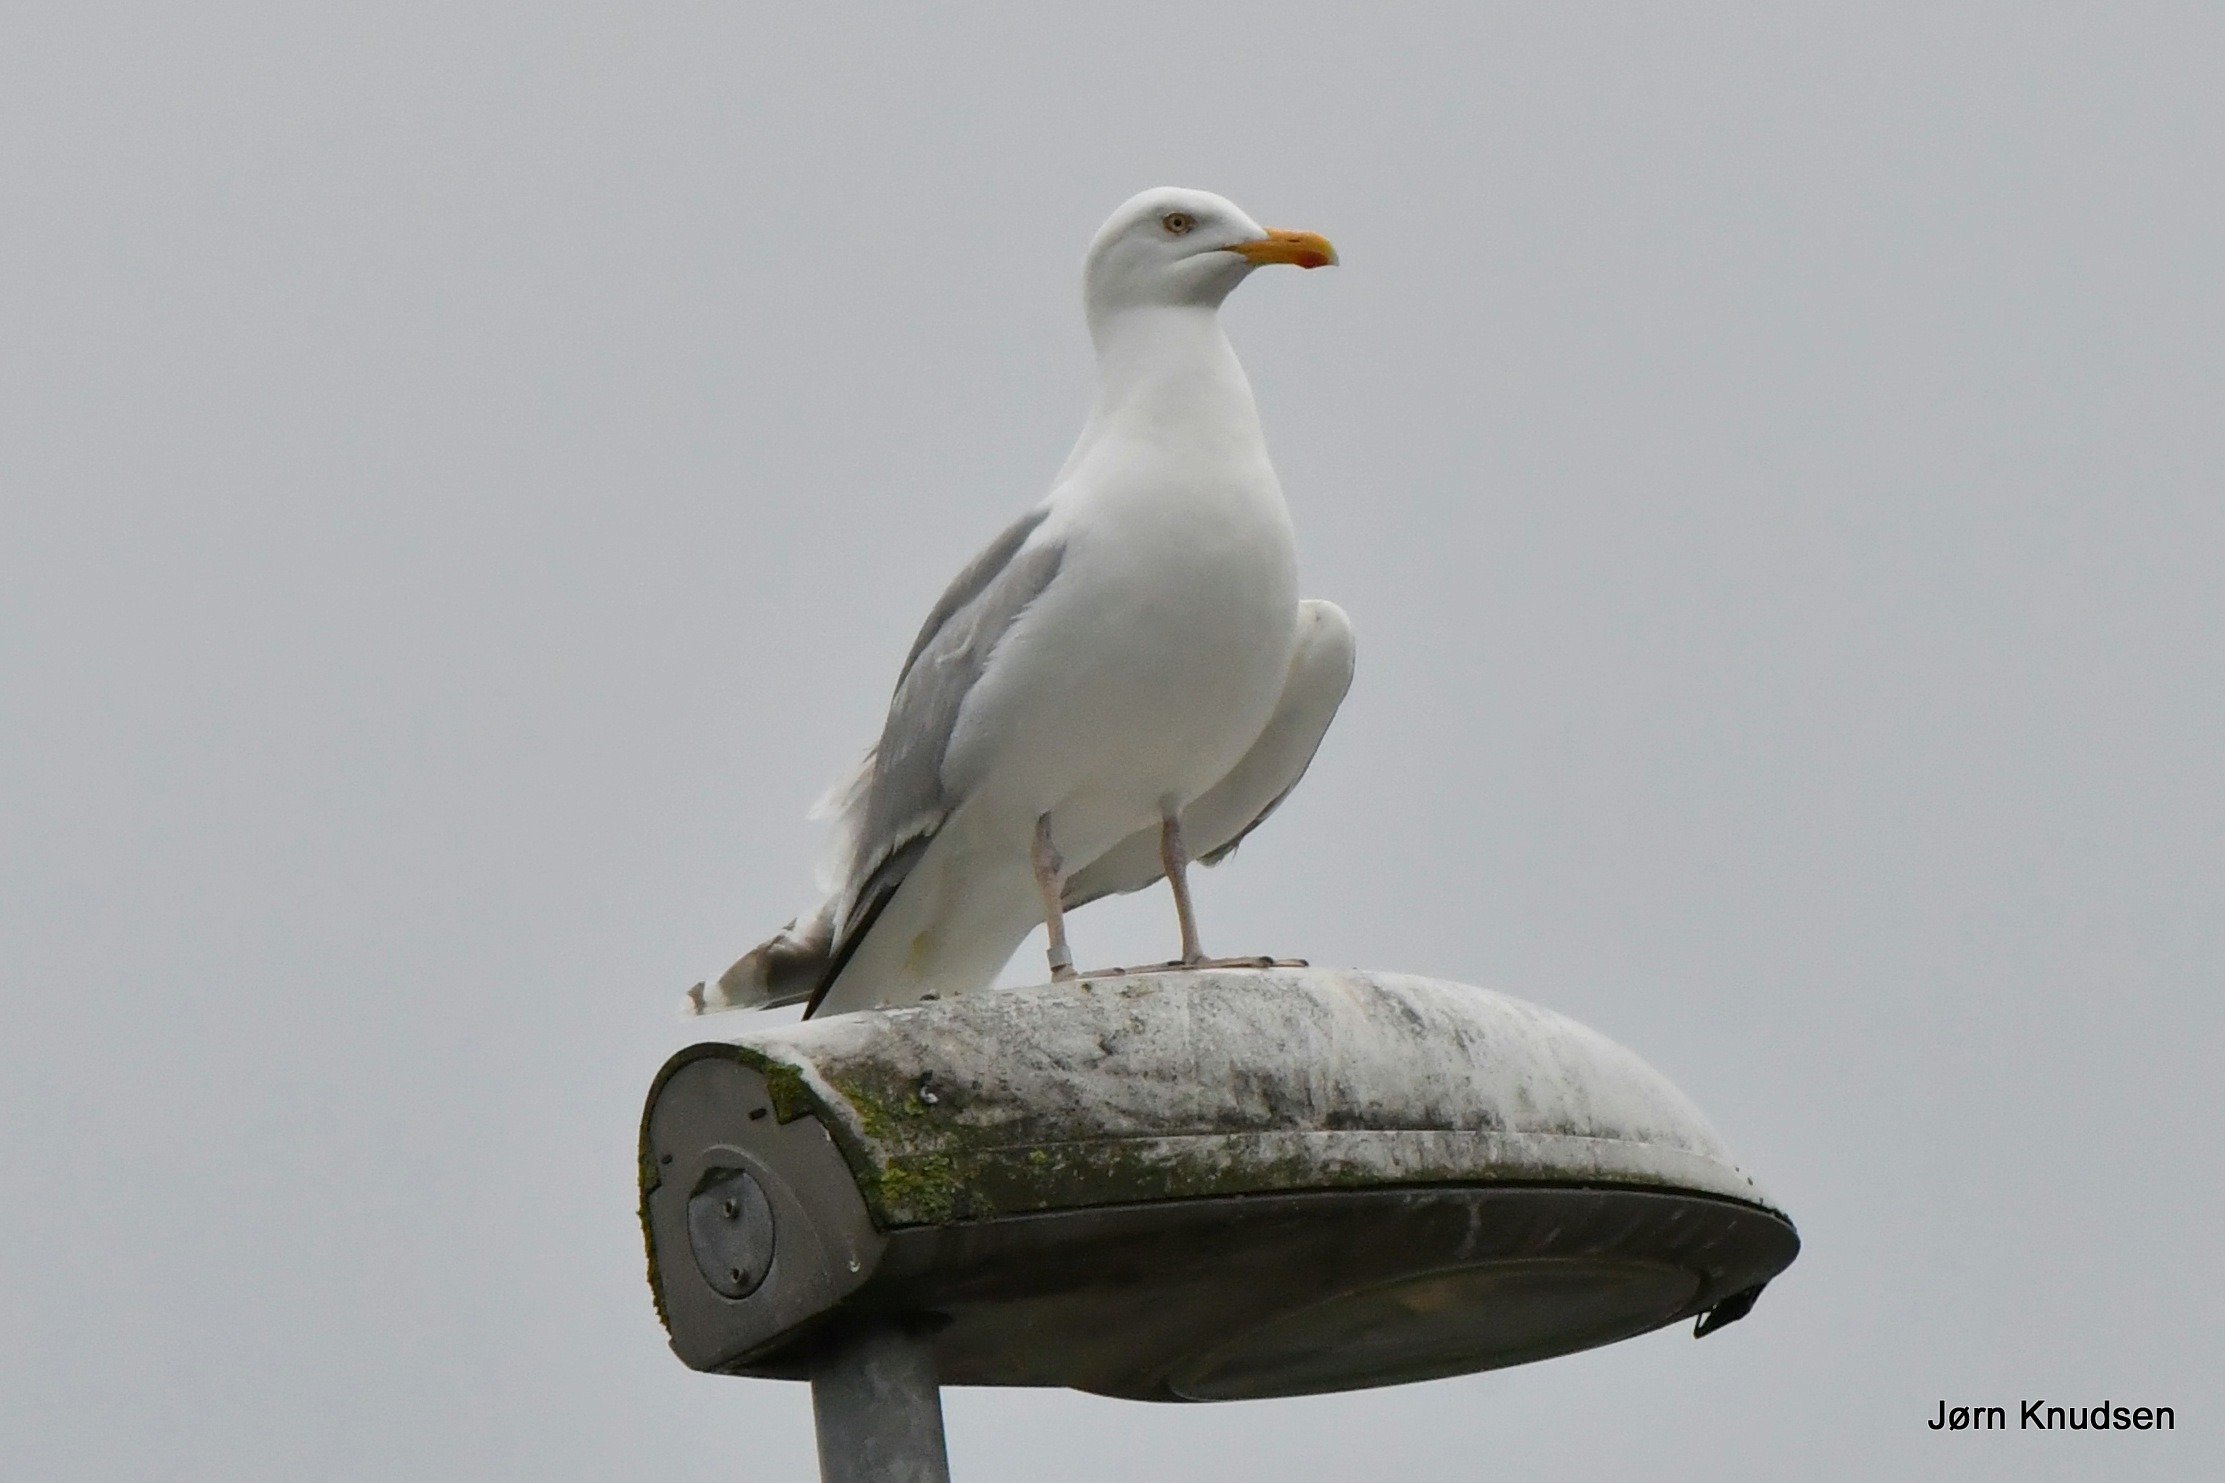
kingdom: Animalia
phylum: Chordata
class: Aves
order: Charadriiformes
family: Laridae
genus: Larus
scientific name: Larus argentatus
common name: Sølvmåge
